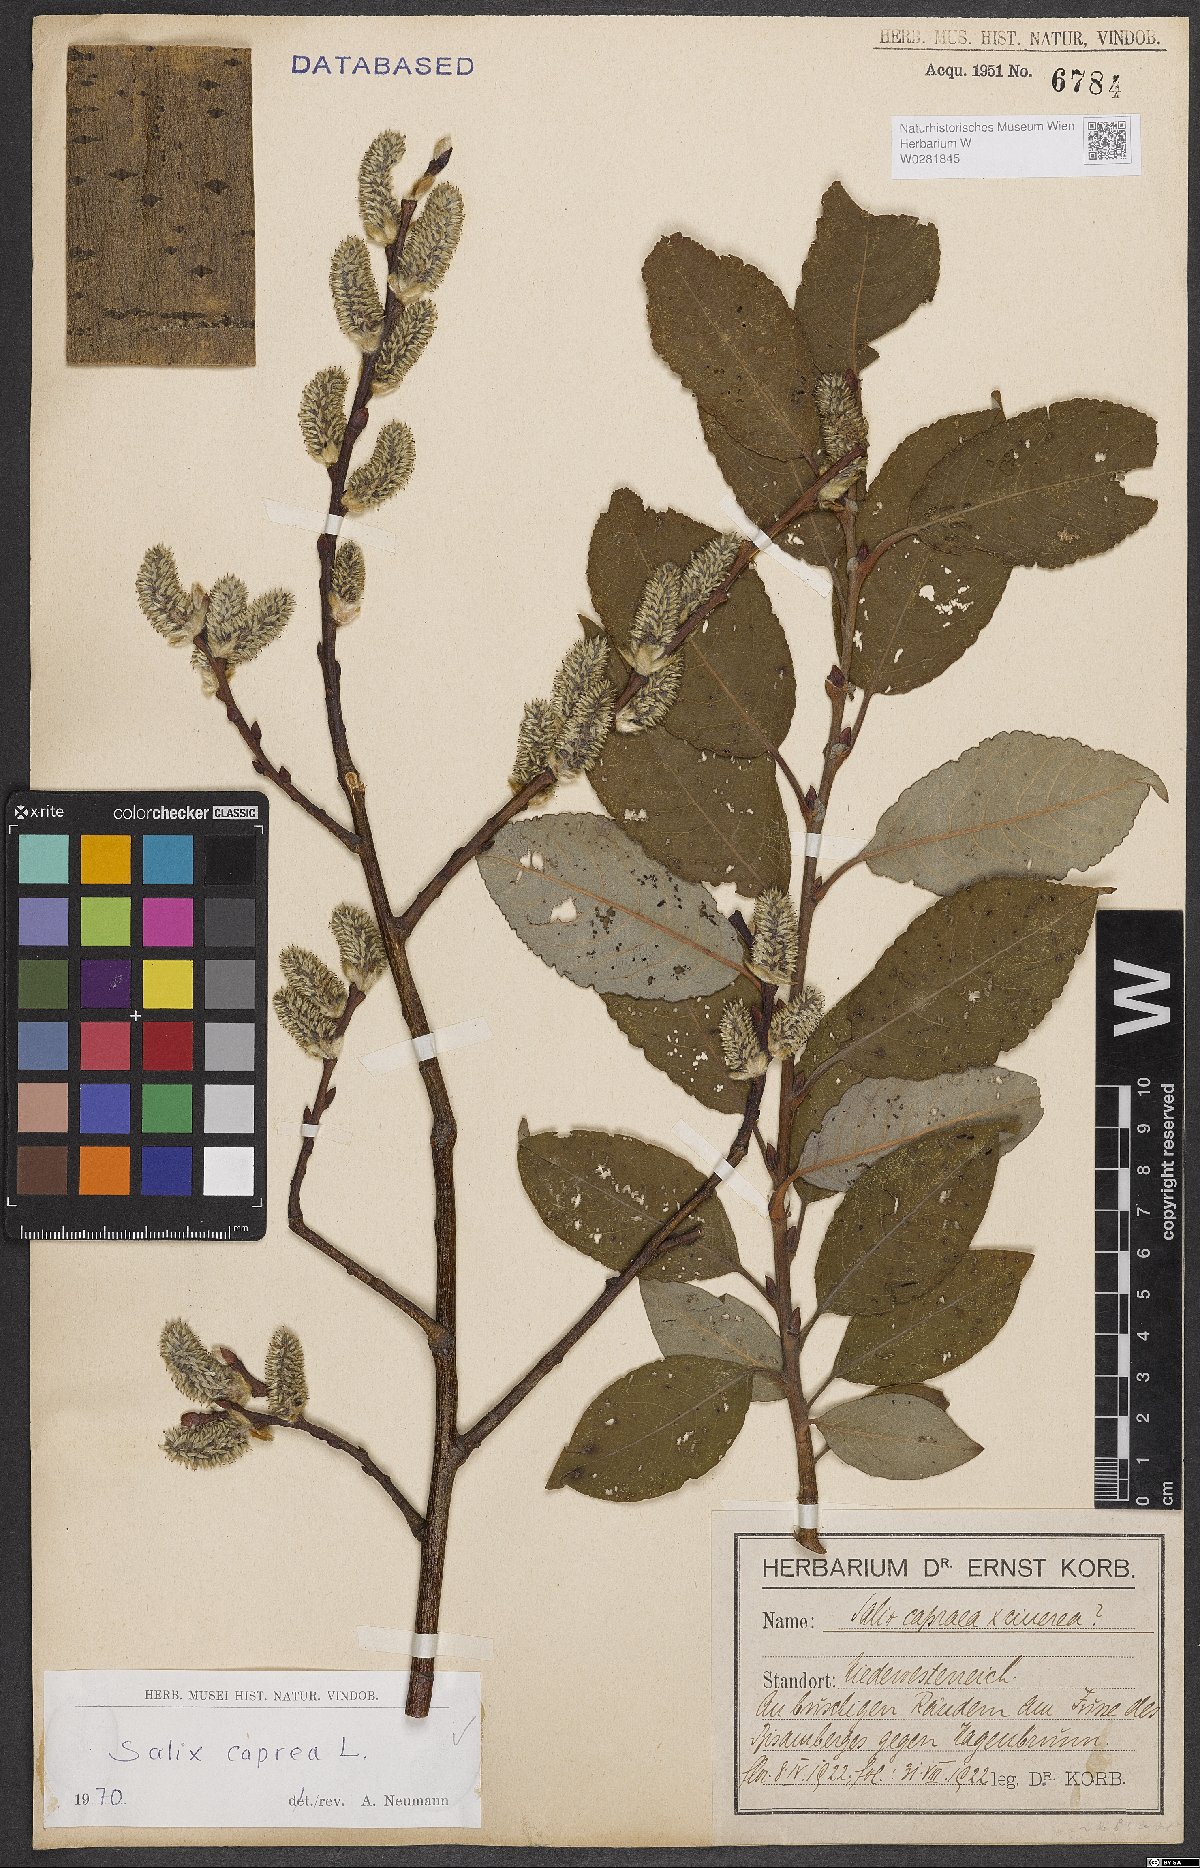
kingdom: Plantae
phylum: Tracheophyta
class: Magnoliopsida
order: Malpighiales
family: Salicaceae
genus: Salix
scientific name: Salix caprea
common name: Goat willow
